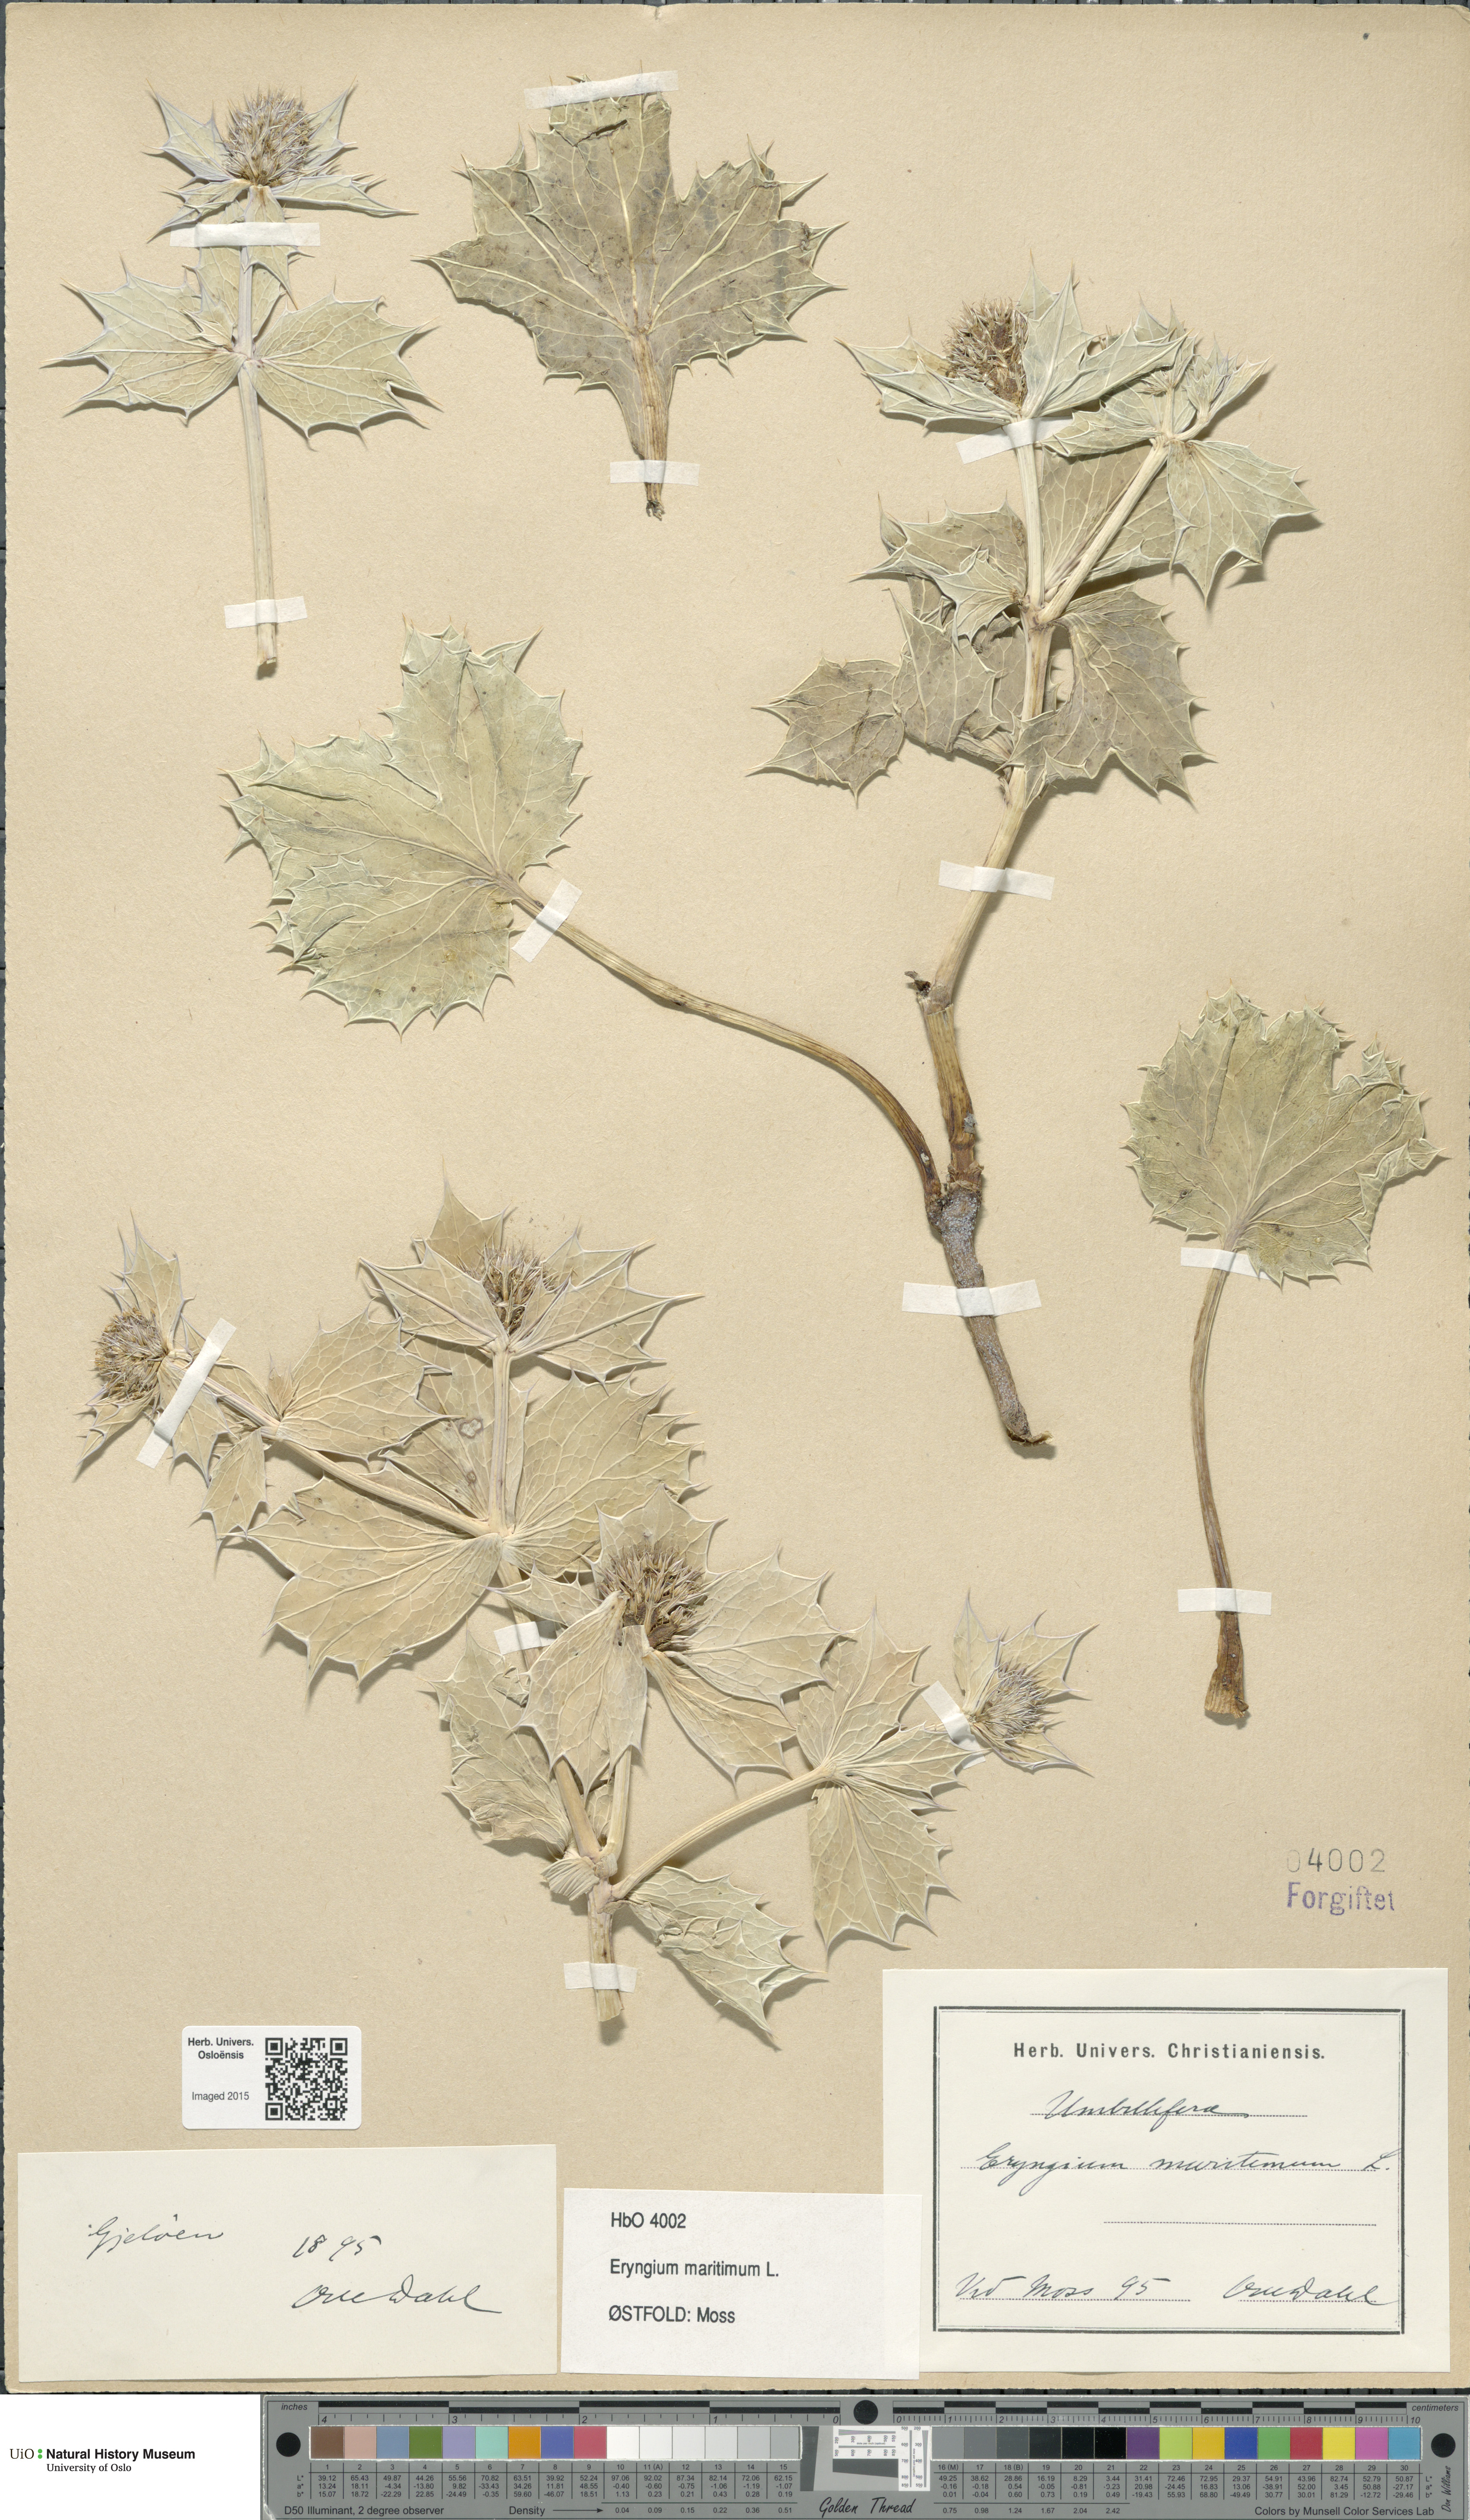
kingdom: Plantae
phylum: Tracheophyta
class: Magnoliopsida
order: Apiales
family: Apiaceae
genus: Eryngium
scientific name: Eryngium maritimum
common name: Sea-holly
